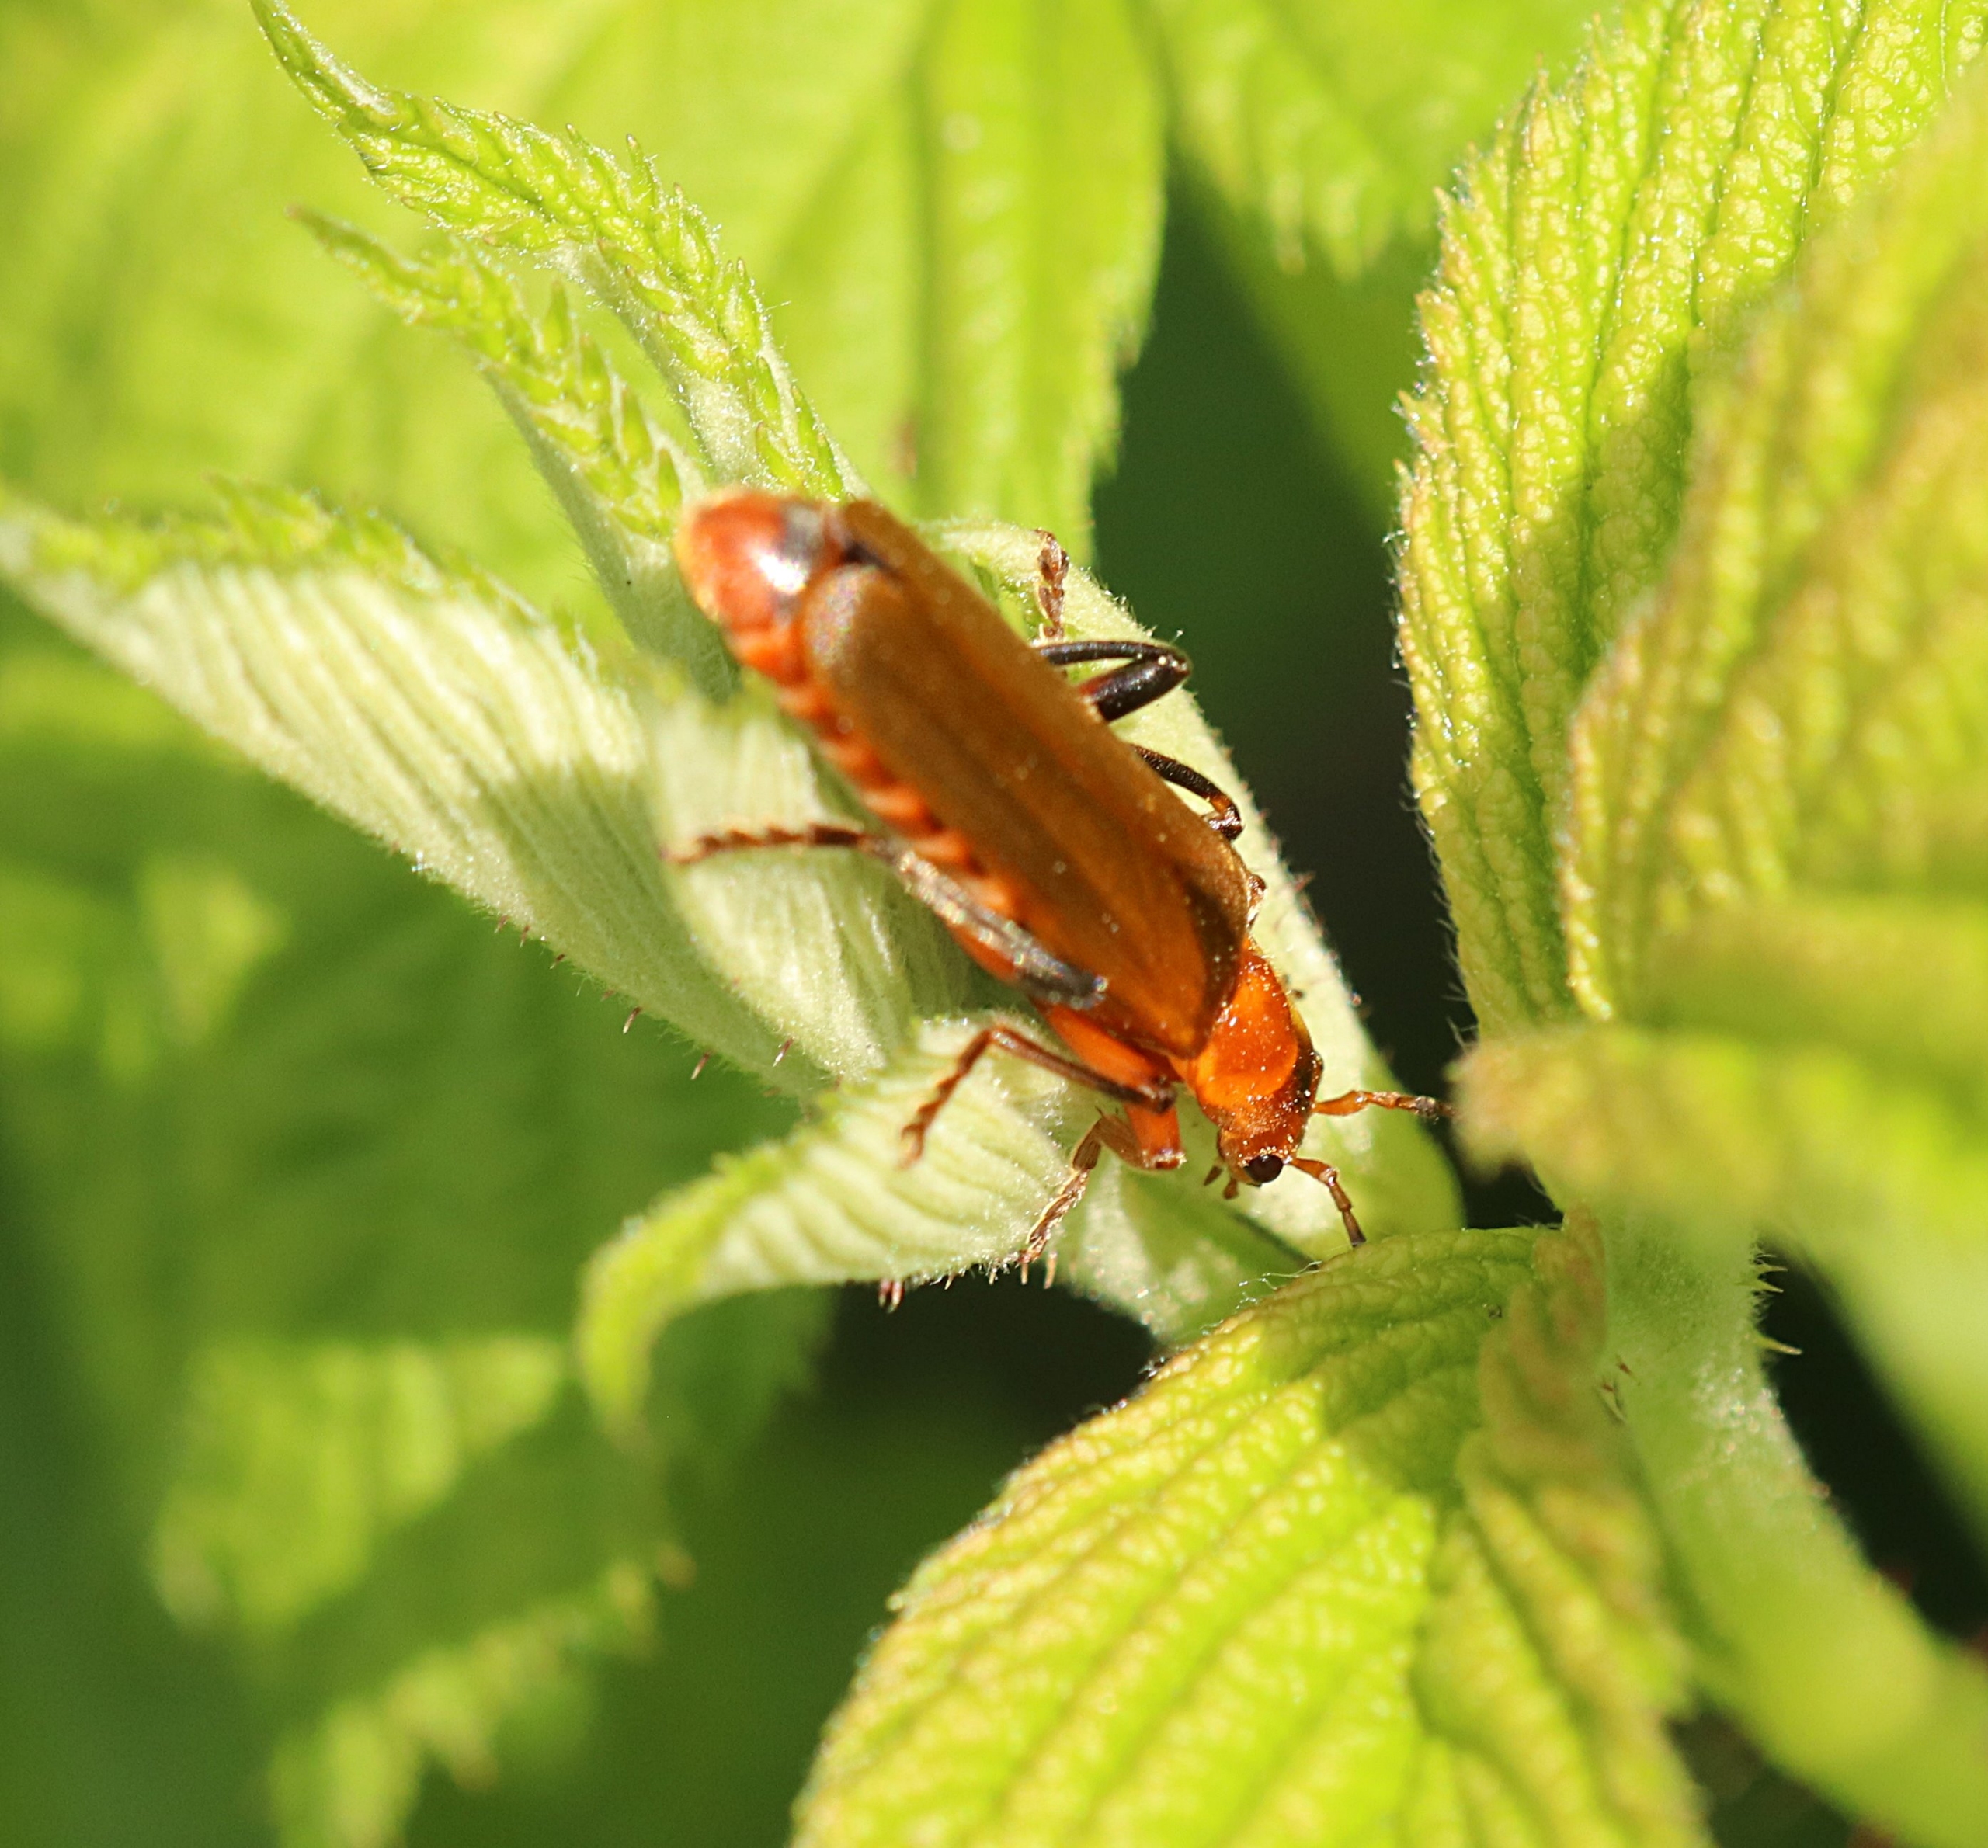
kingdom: Animalia
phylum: Arthropoda
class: Insecta
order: Coleoptera
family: Cantharidae
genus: Cantharis
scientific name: Cantharis livida
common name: Gul blødvinge
